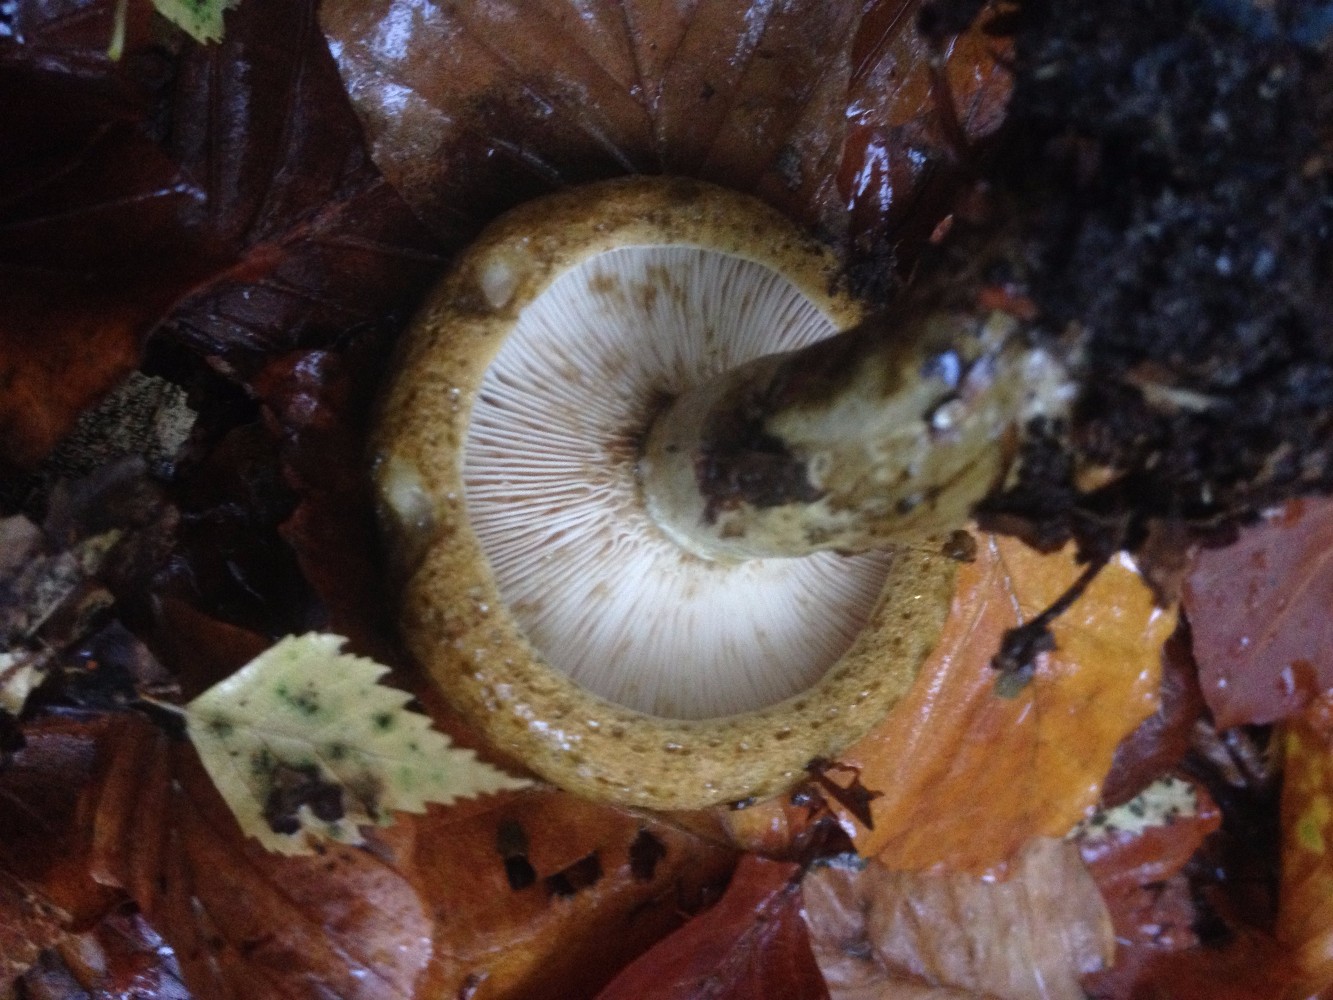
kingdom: Fungi
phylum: Basidiomycota
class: Agaricomycetes
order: Russulales
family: Russulaceae
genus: Lactarius
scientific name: Lactarius necator
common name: manddraber-mælkehat
